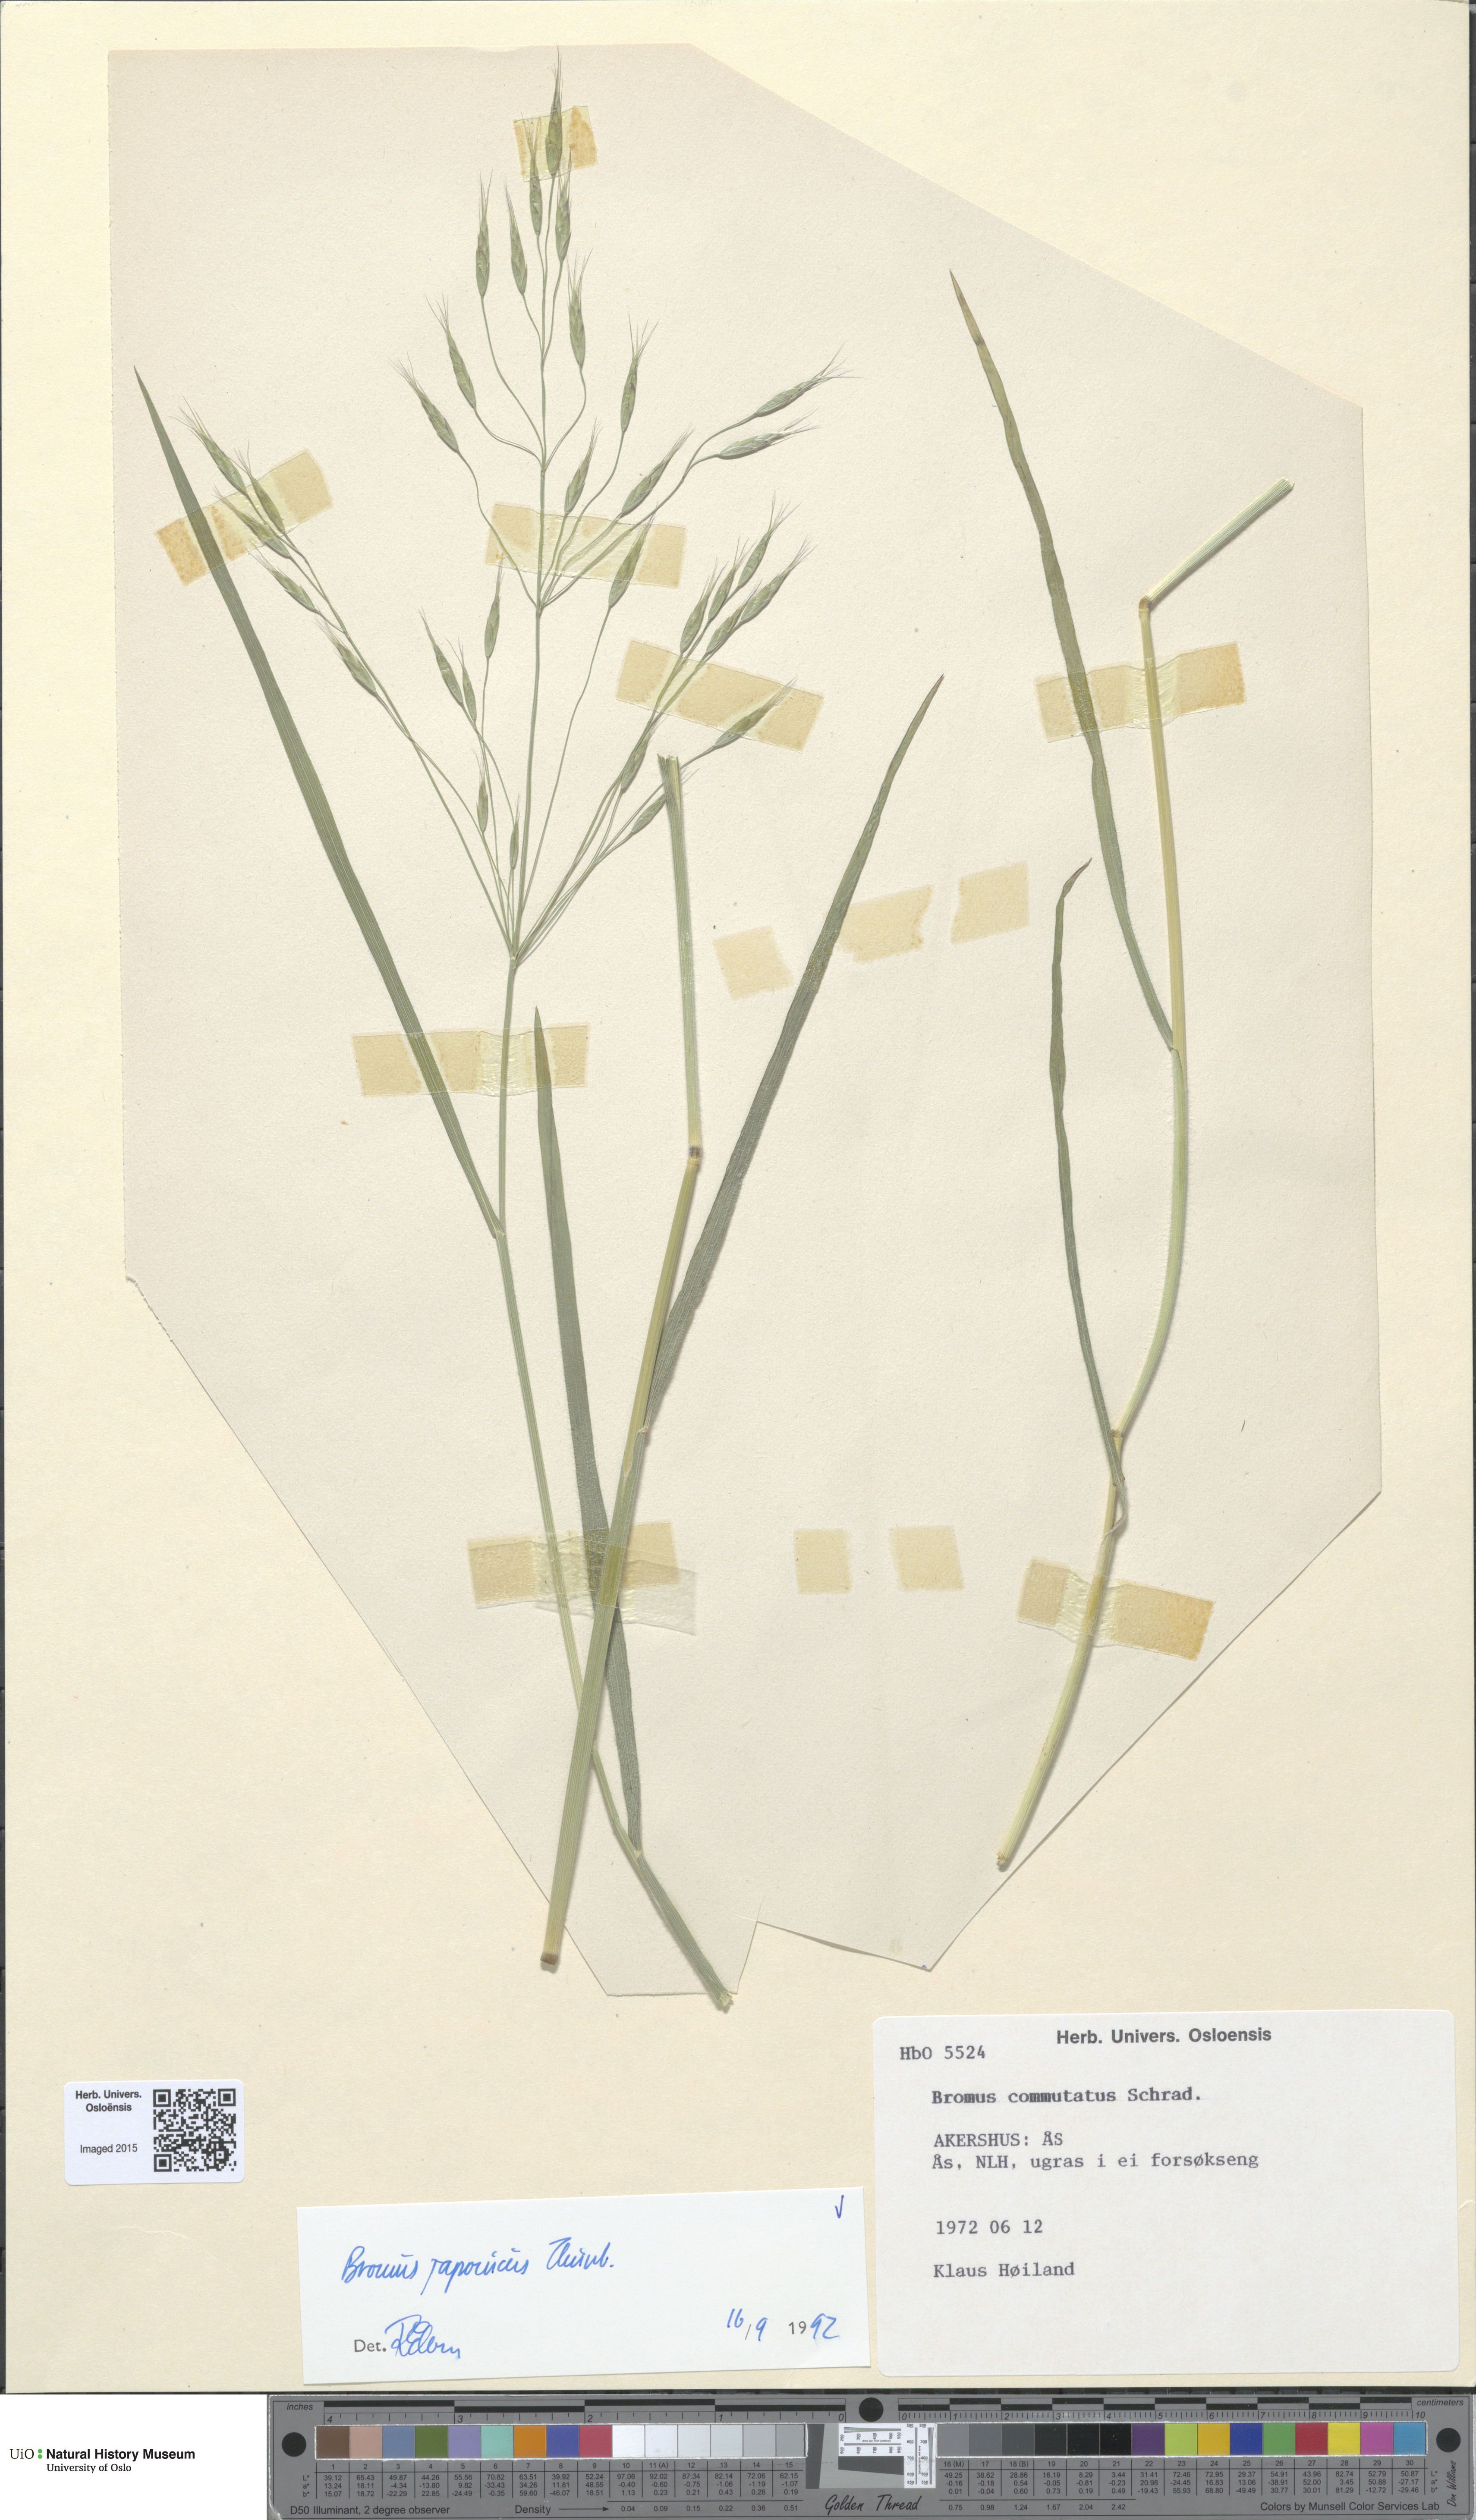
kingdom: Plantae
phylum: Tracheophyta
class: Liliopsida
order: Poales
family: Poaceae
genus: Bromus
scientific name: Bromus japonicus
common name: Japanese brome
